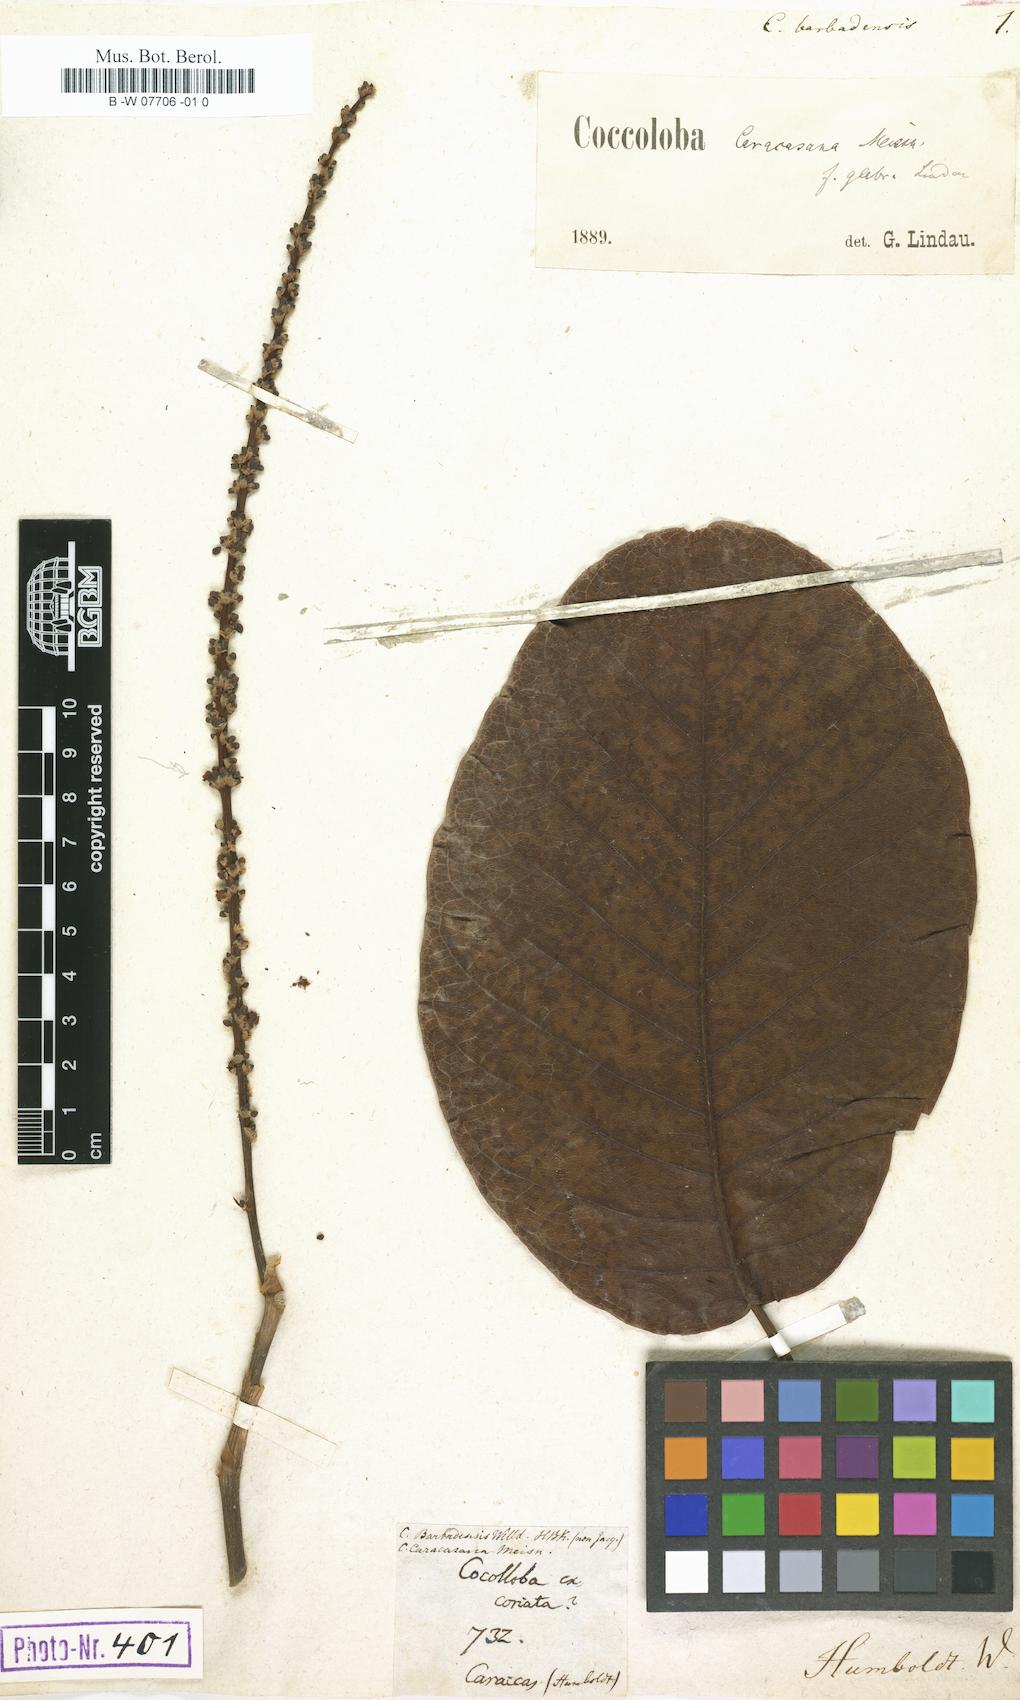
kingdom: Plantae
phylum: Tracheophyta
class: Magnoliopsida
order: Caryophyllales
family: Polygonaceae
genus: Coccoloba
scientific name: Coccoloba barbadensis
